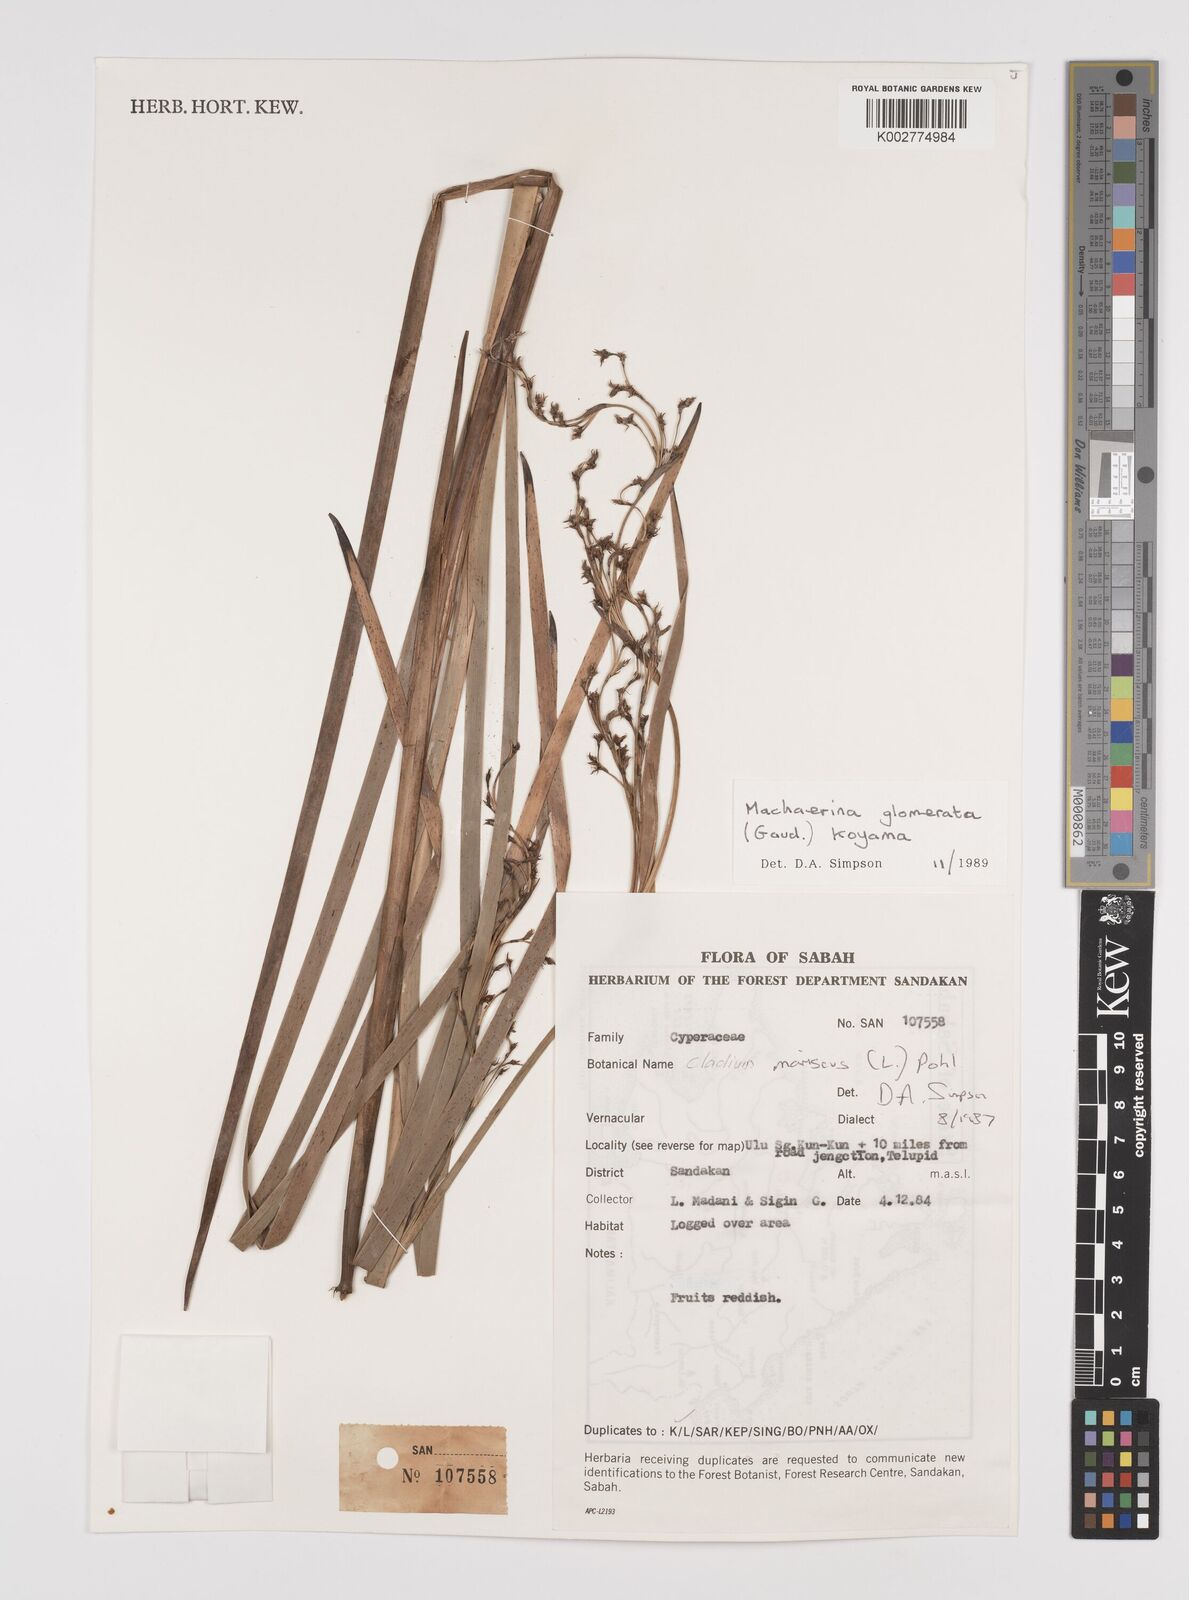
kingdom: Plantae
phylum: Tracheophyta
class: Liliopsida
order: Poales
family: Cyperaceae
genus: Machaerina
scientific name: Machaerina glomerata
